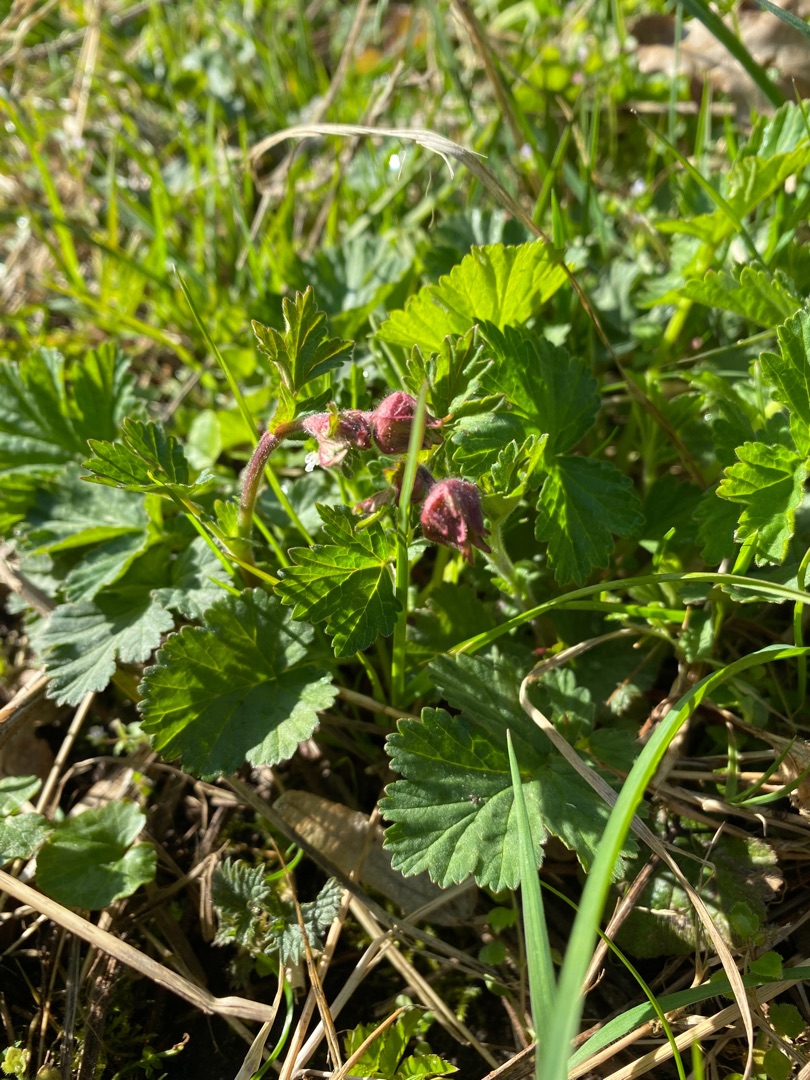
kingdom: Plantae
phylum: Tracheophyta
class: Magnoliopsida
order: Rosales
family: Rosaceae
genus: Geum
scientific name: Geum rivale
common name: Eng-nellikerod
